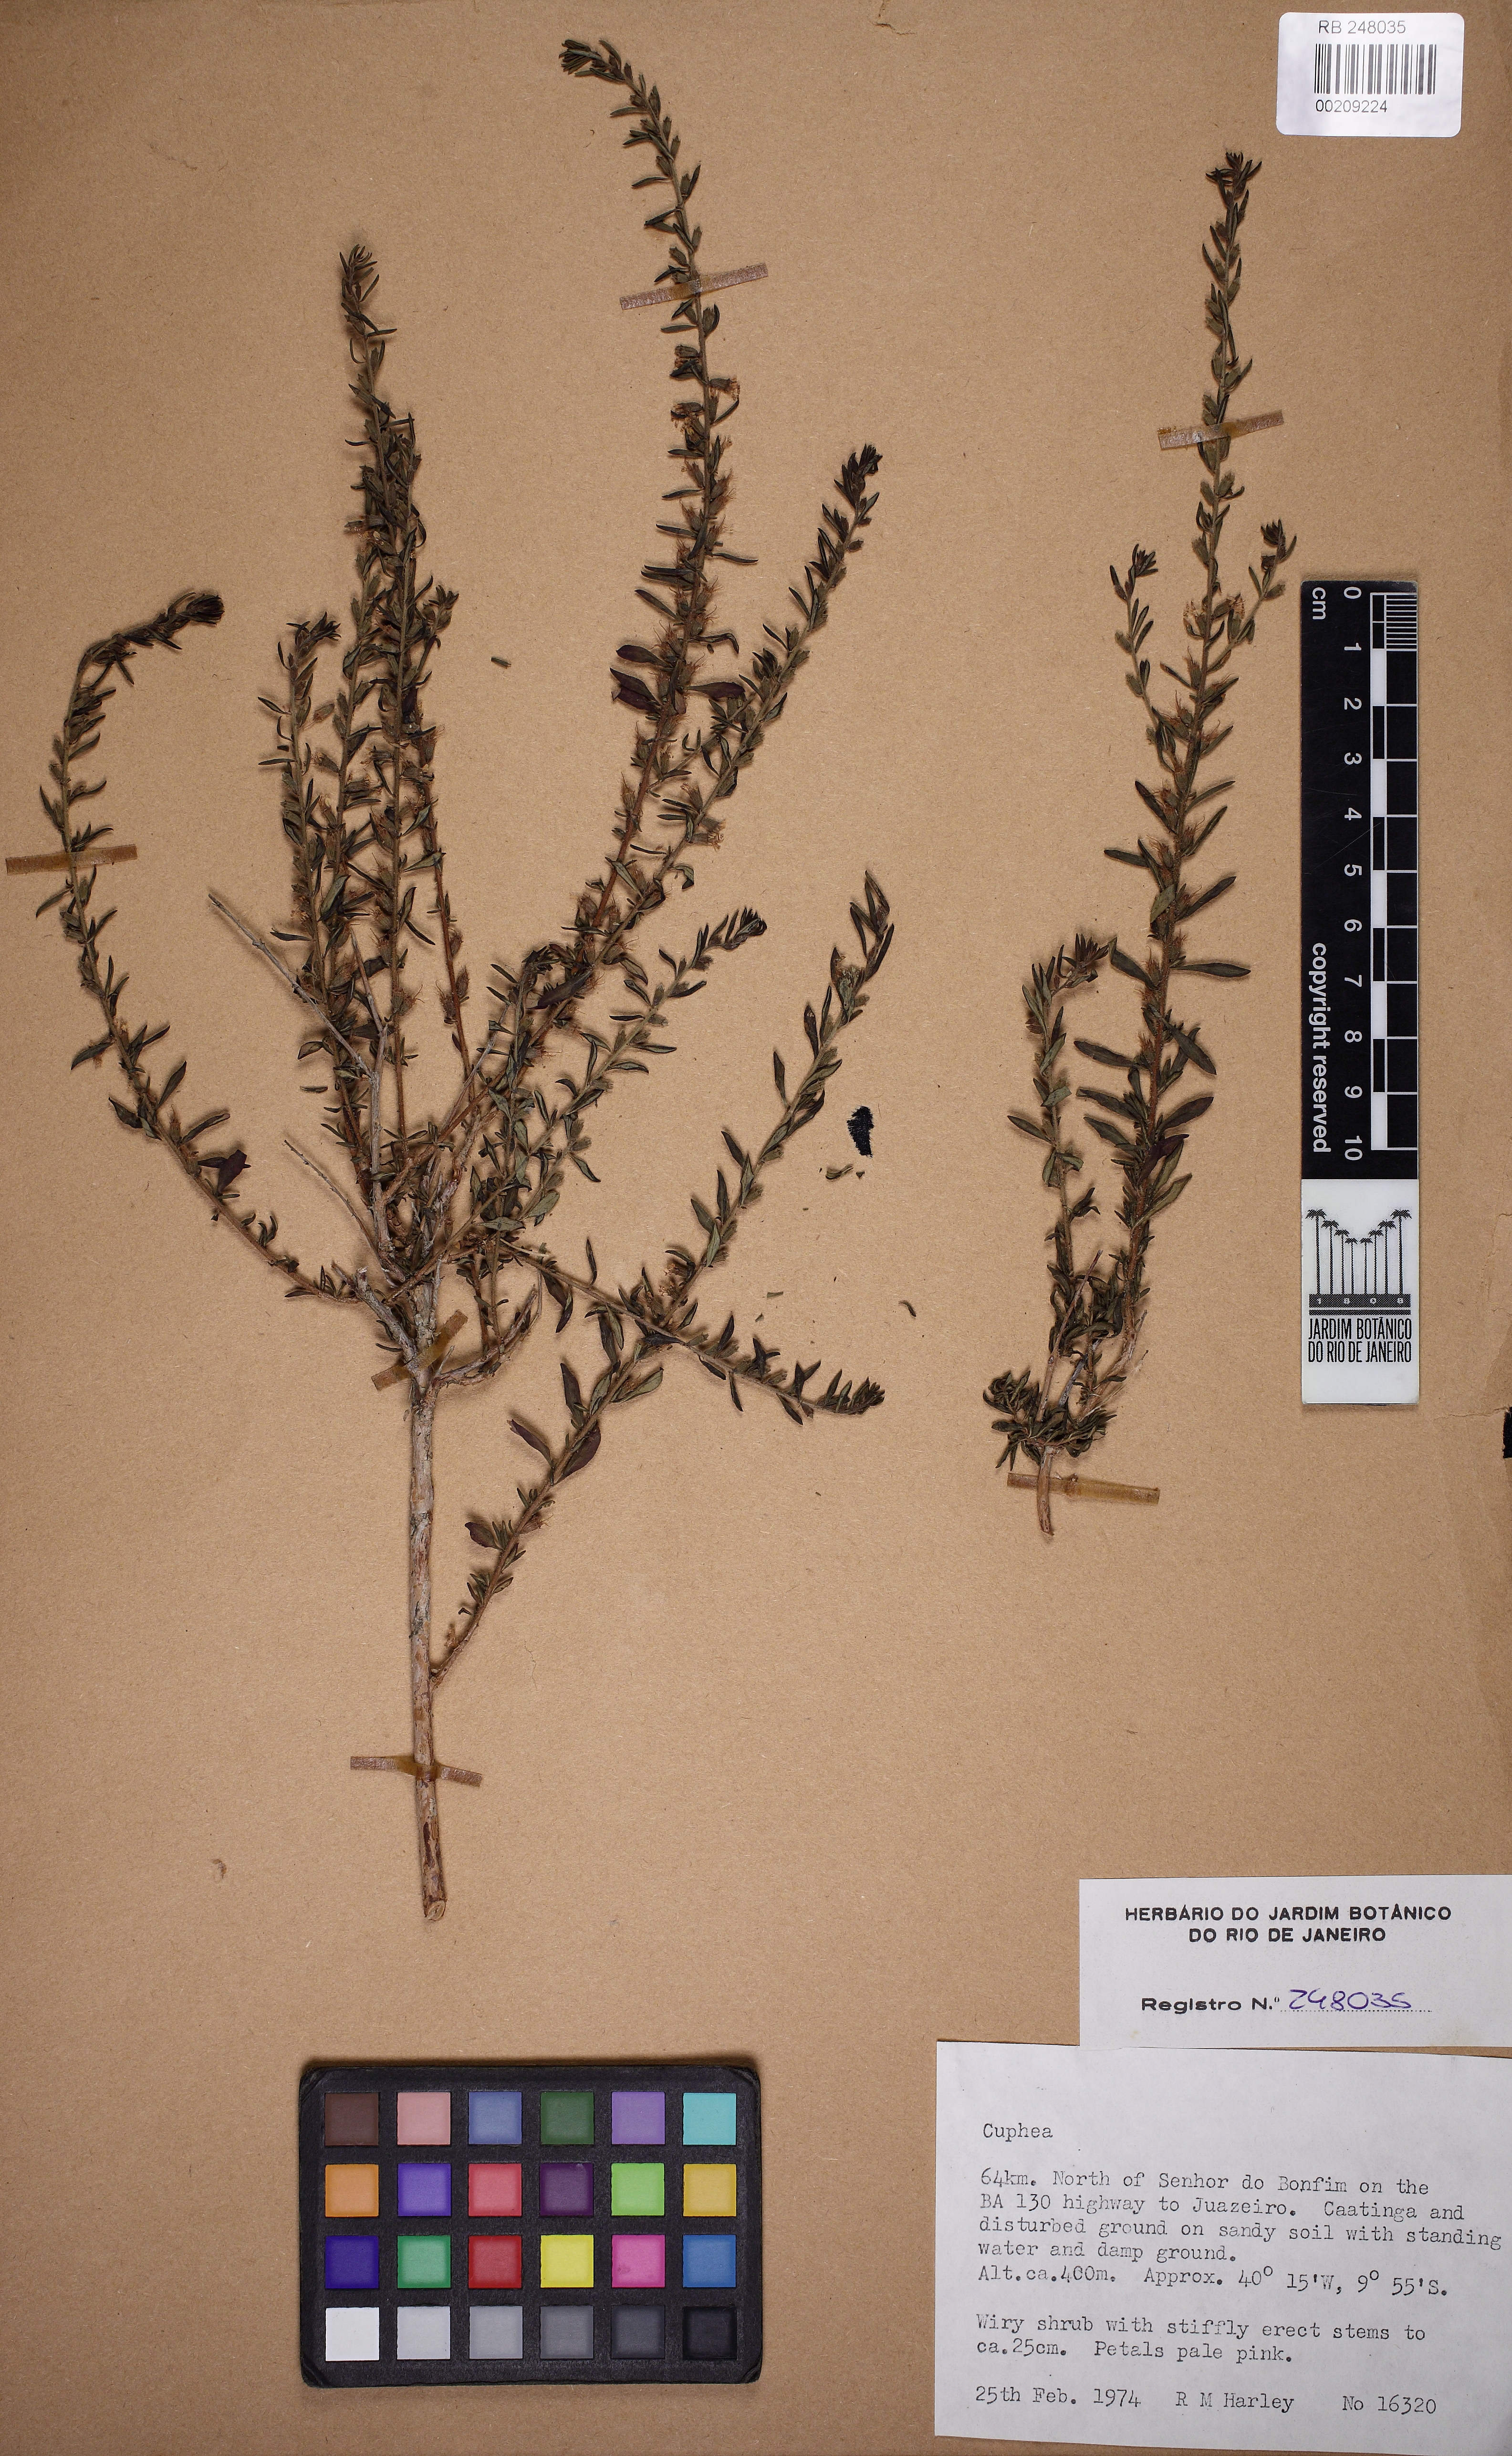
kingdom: Plantae
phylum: Tracheophyta
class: Magnoliopsida
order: Myrtales
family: Lythraceae
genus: Cuphea
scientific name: Cuphea
